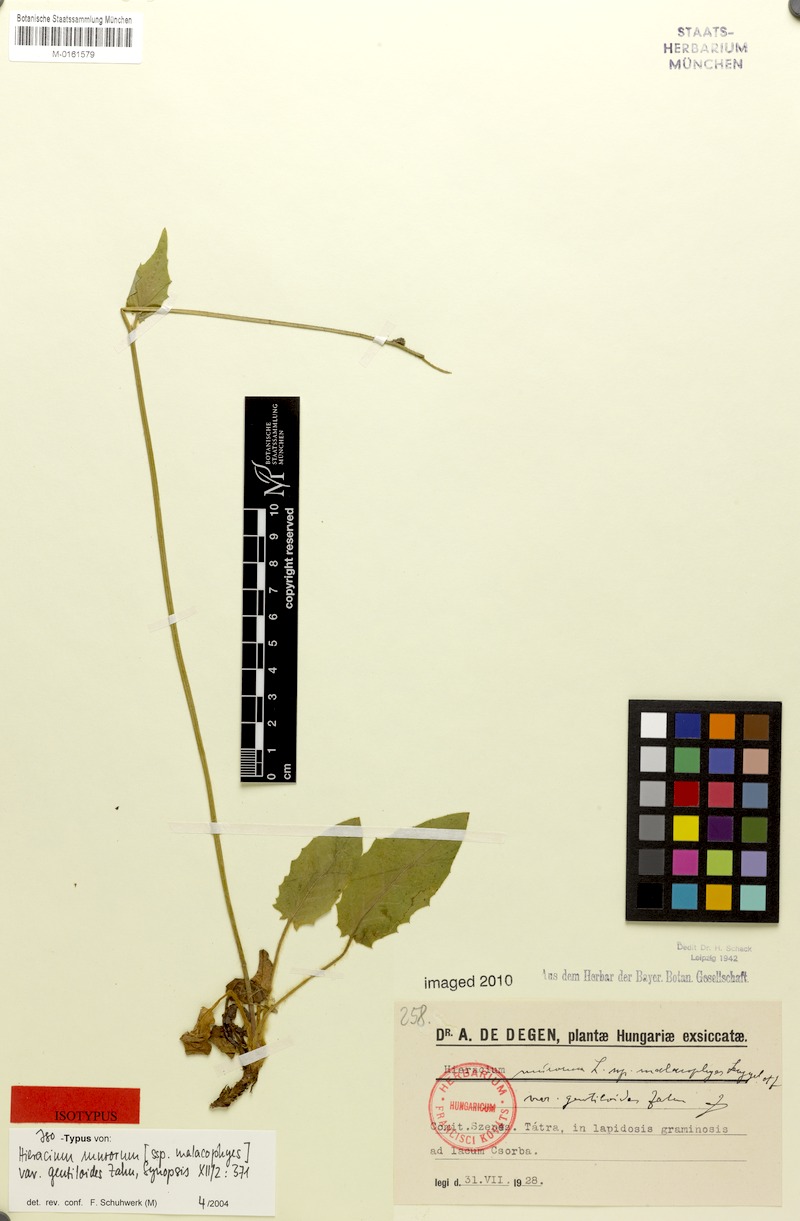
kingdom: Plantae
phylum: Tracheophyta
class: Magnoliopsida
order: Asterales
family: Asteraceae
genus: Hieracium
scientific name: Hieracium murorum
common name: Wall hawkweed
